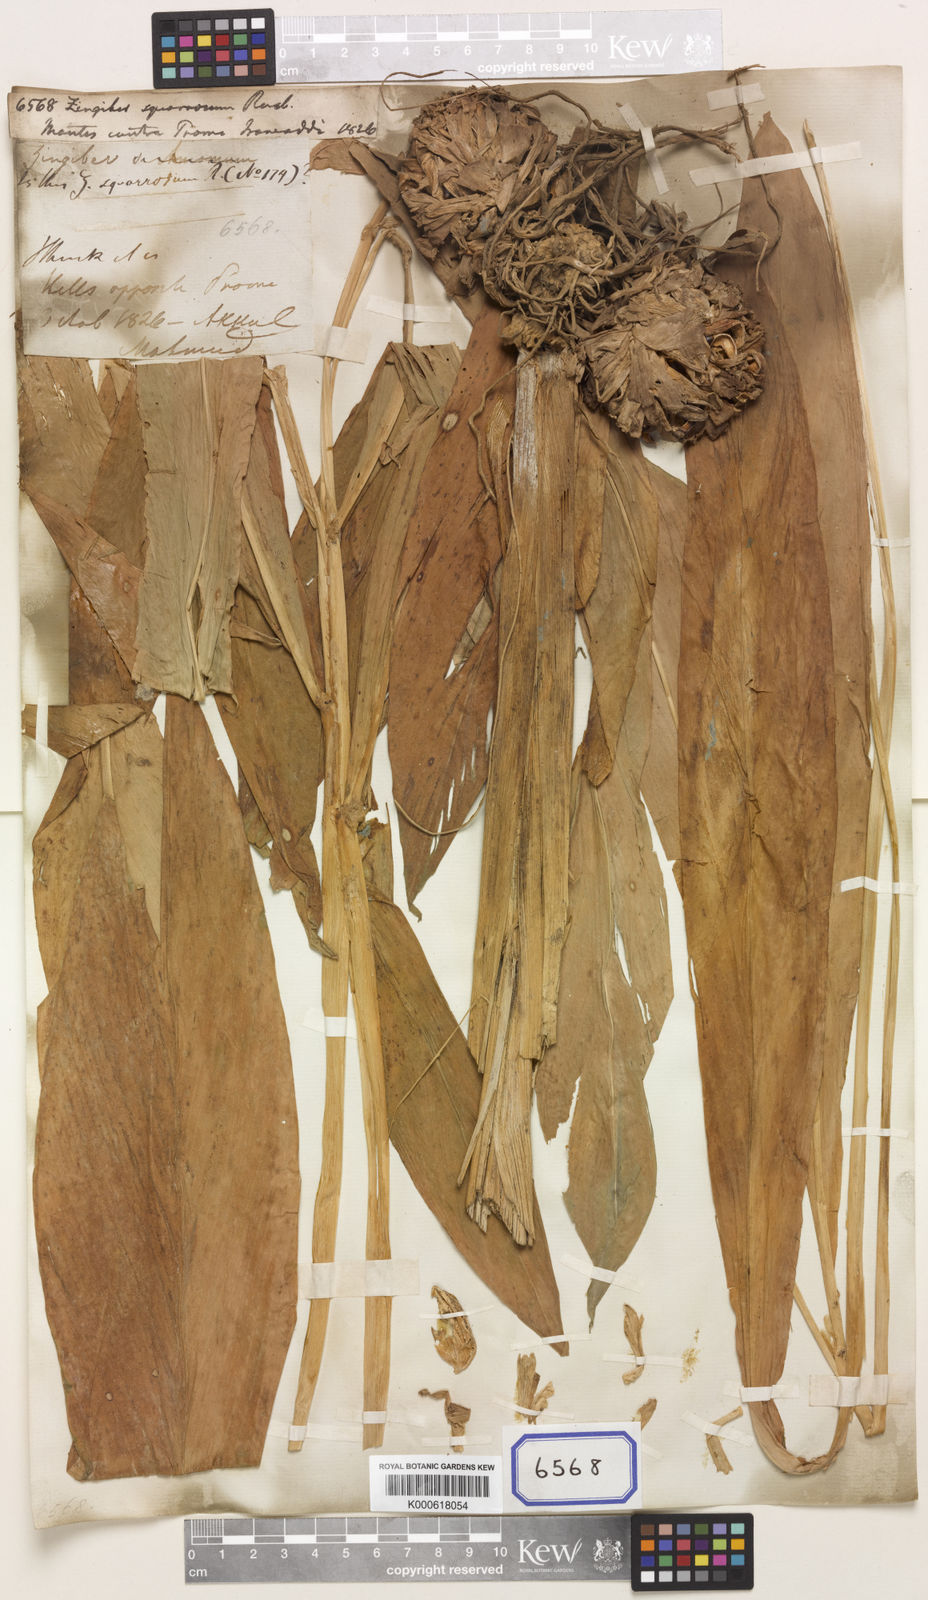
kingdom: Plantae
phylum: Tracheophyta
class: Liliopsida
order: Zingiberales
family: Zingiberaceae
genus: Zingiber
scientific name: Zingiber squarrosum
